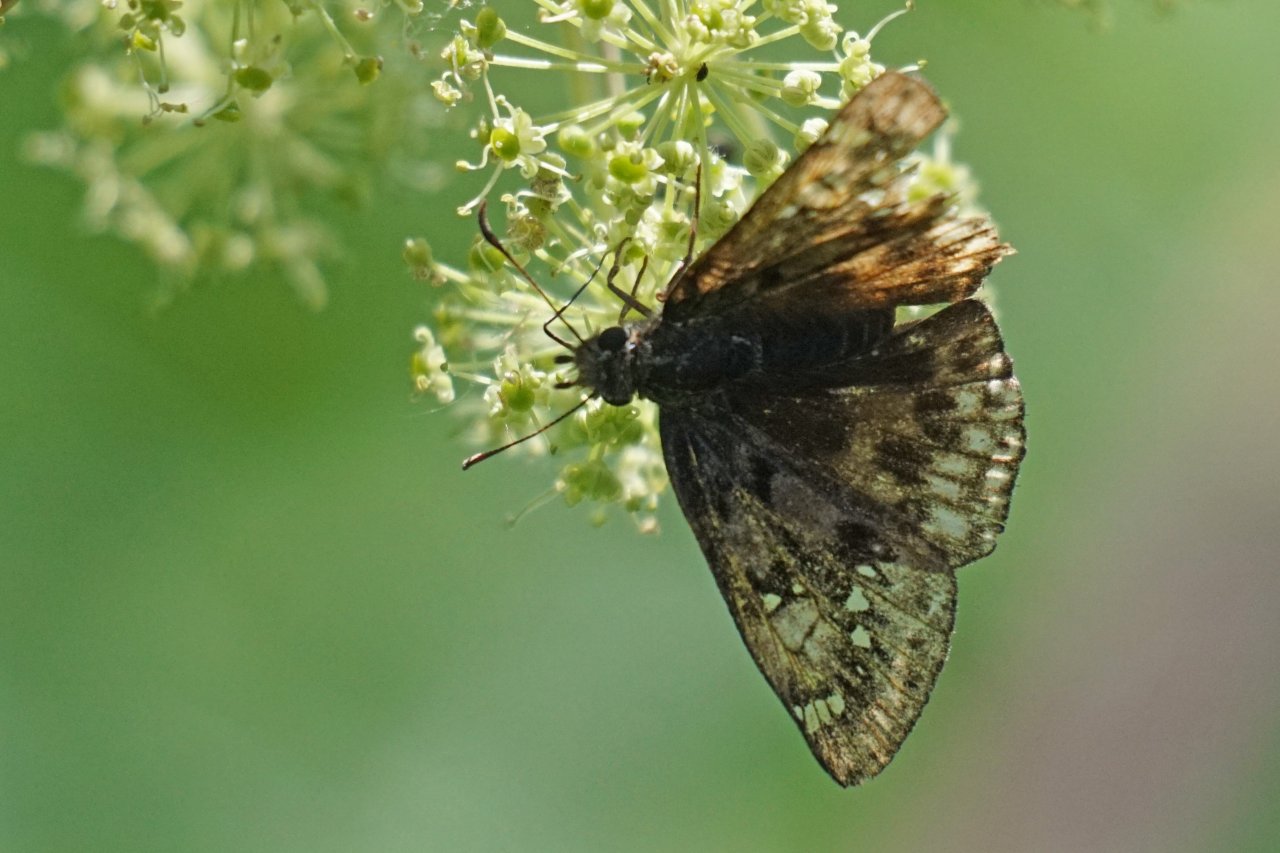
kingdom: Animalia
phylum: Arthropoda
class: Insecta
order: Lepidoptera
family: Hesperiidae
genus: Gesta
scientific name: Gesta
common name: Juvenal's Duskywing
